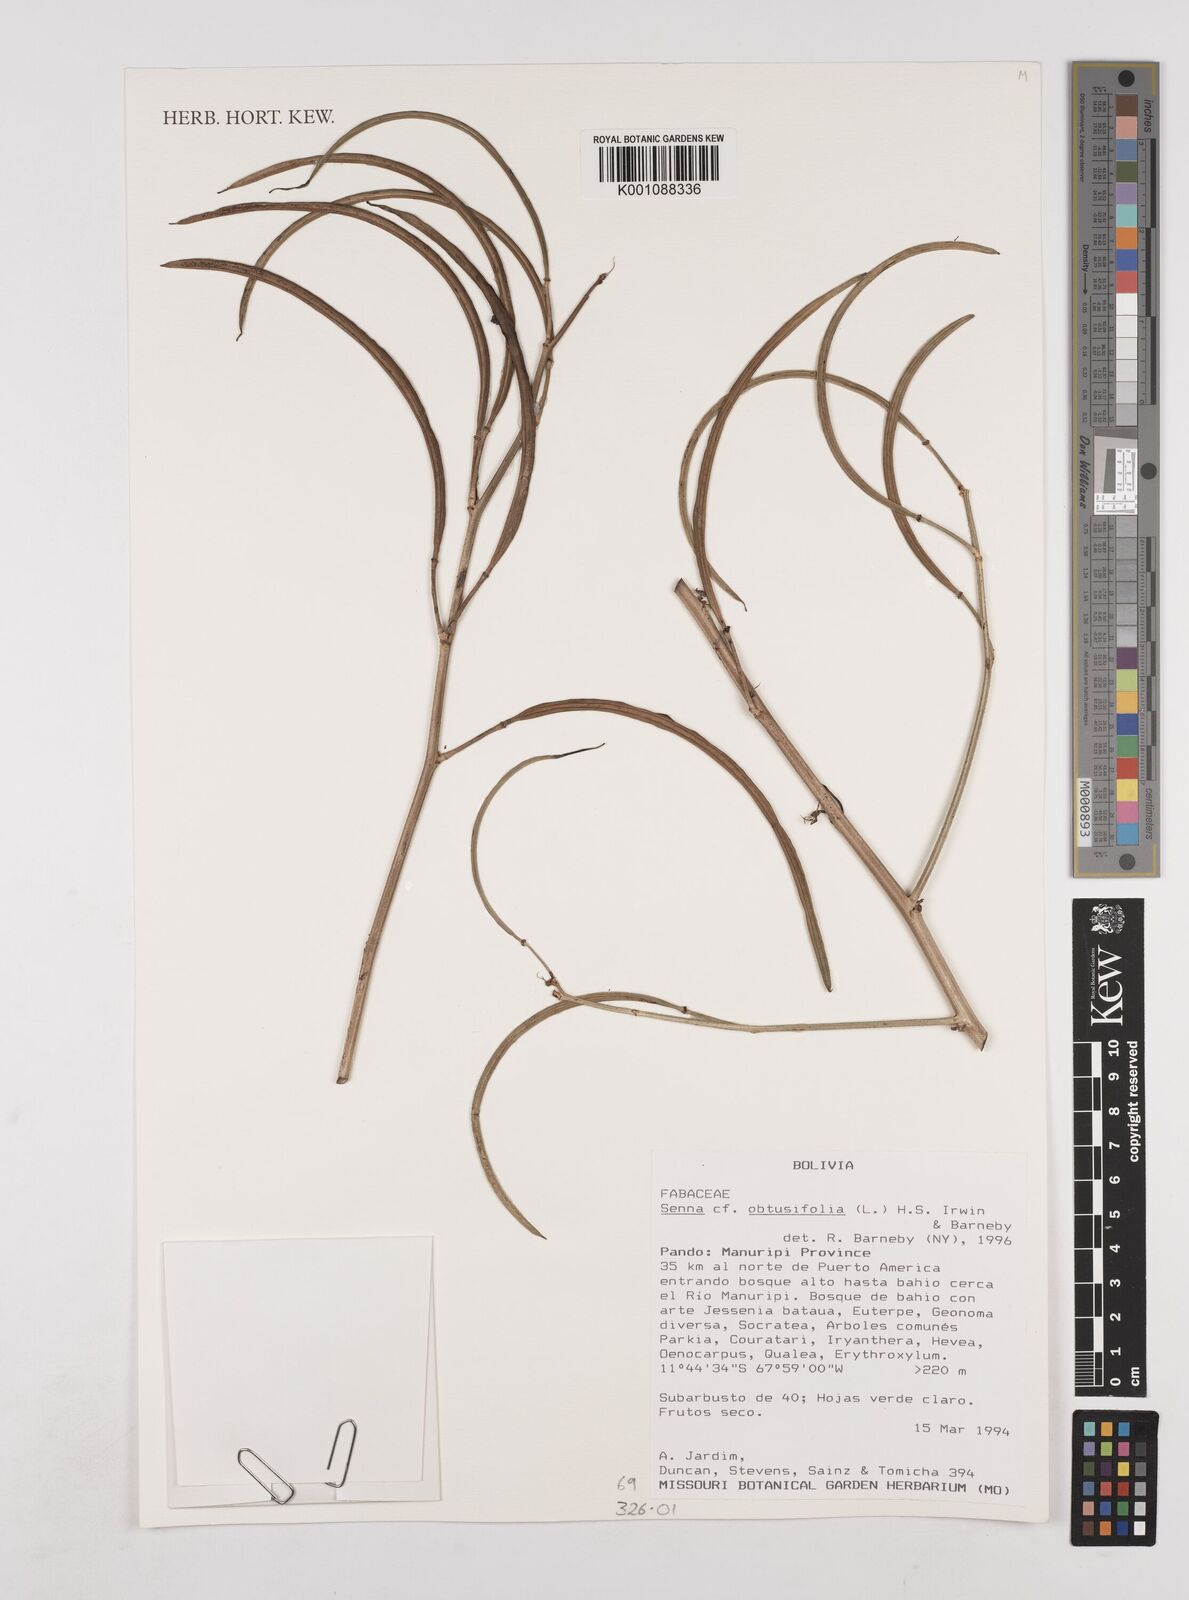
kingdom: Plantae
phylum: Tracheophyta
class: Magnoliopsida
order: Fabales
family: Fabaceae
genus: Senna
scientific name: Senna obtusifolia
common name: Java-bean
